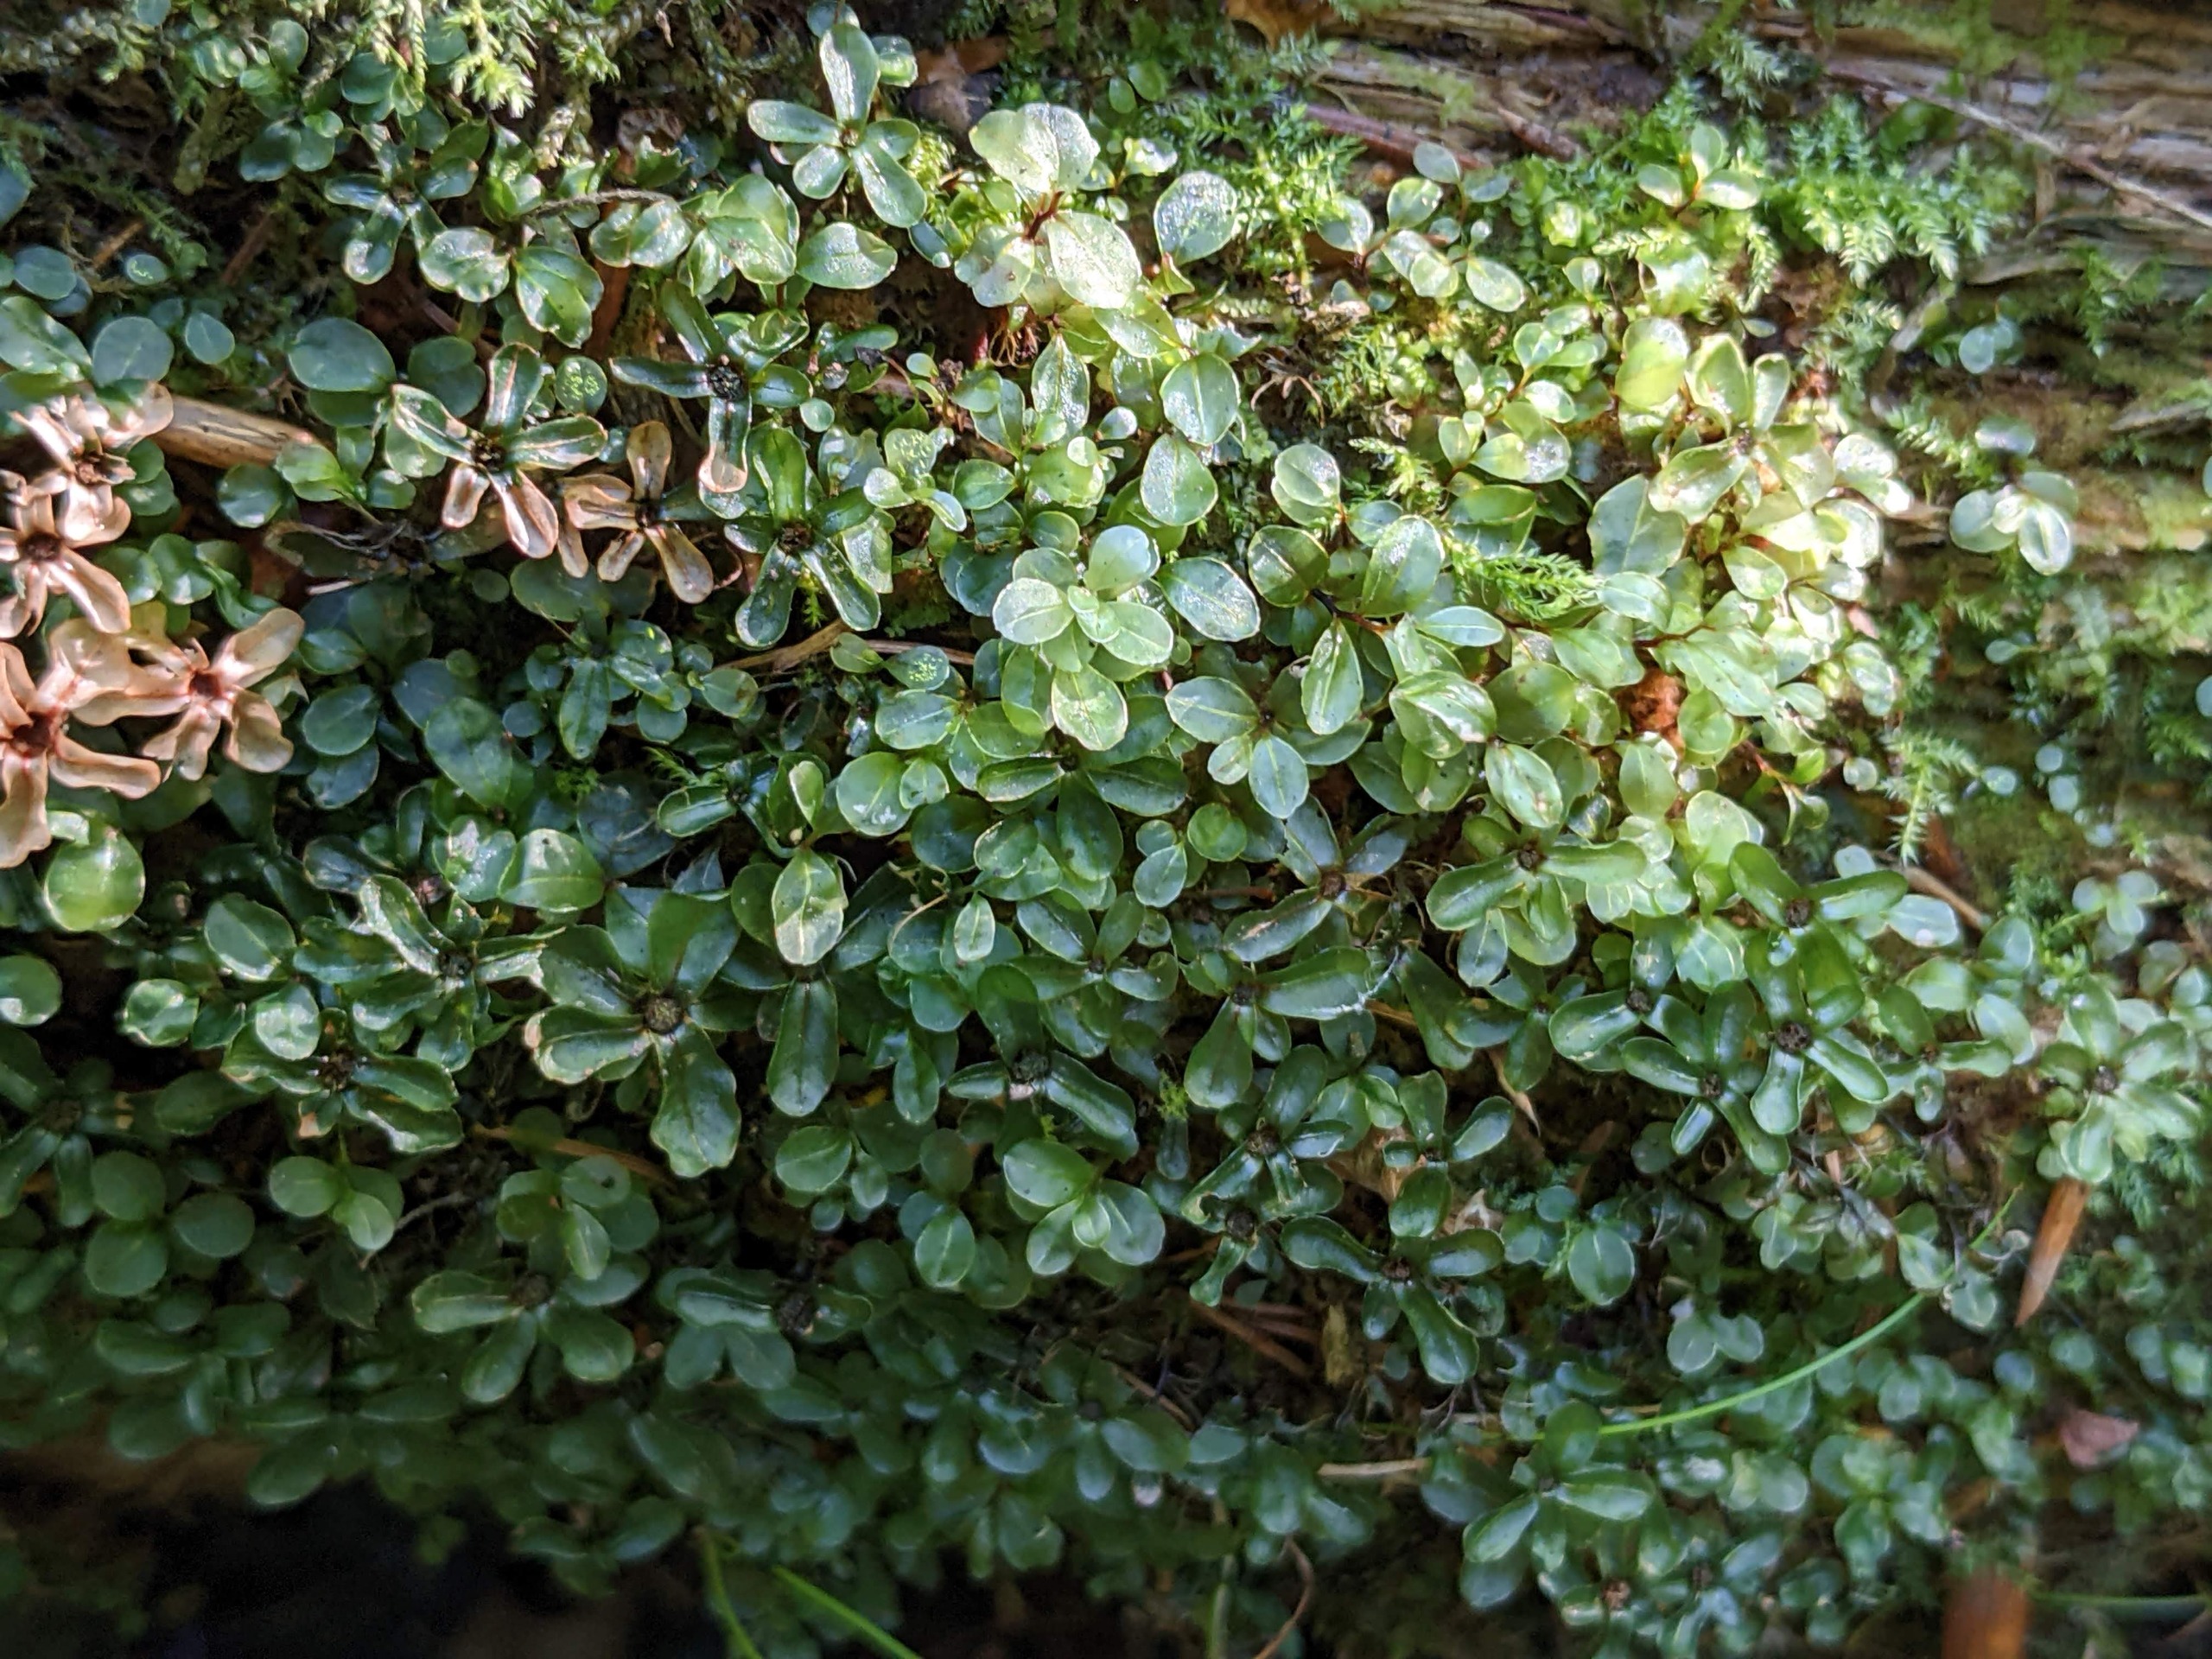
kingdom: Plantae
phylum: Bryophyta
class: Bryopsida
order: Bryales
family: Mniaceae
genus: Rhizomnium
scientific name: Rhizomnium punctatum
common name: Almindelig bredblad
